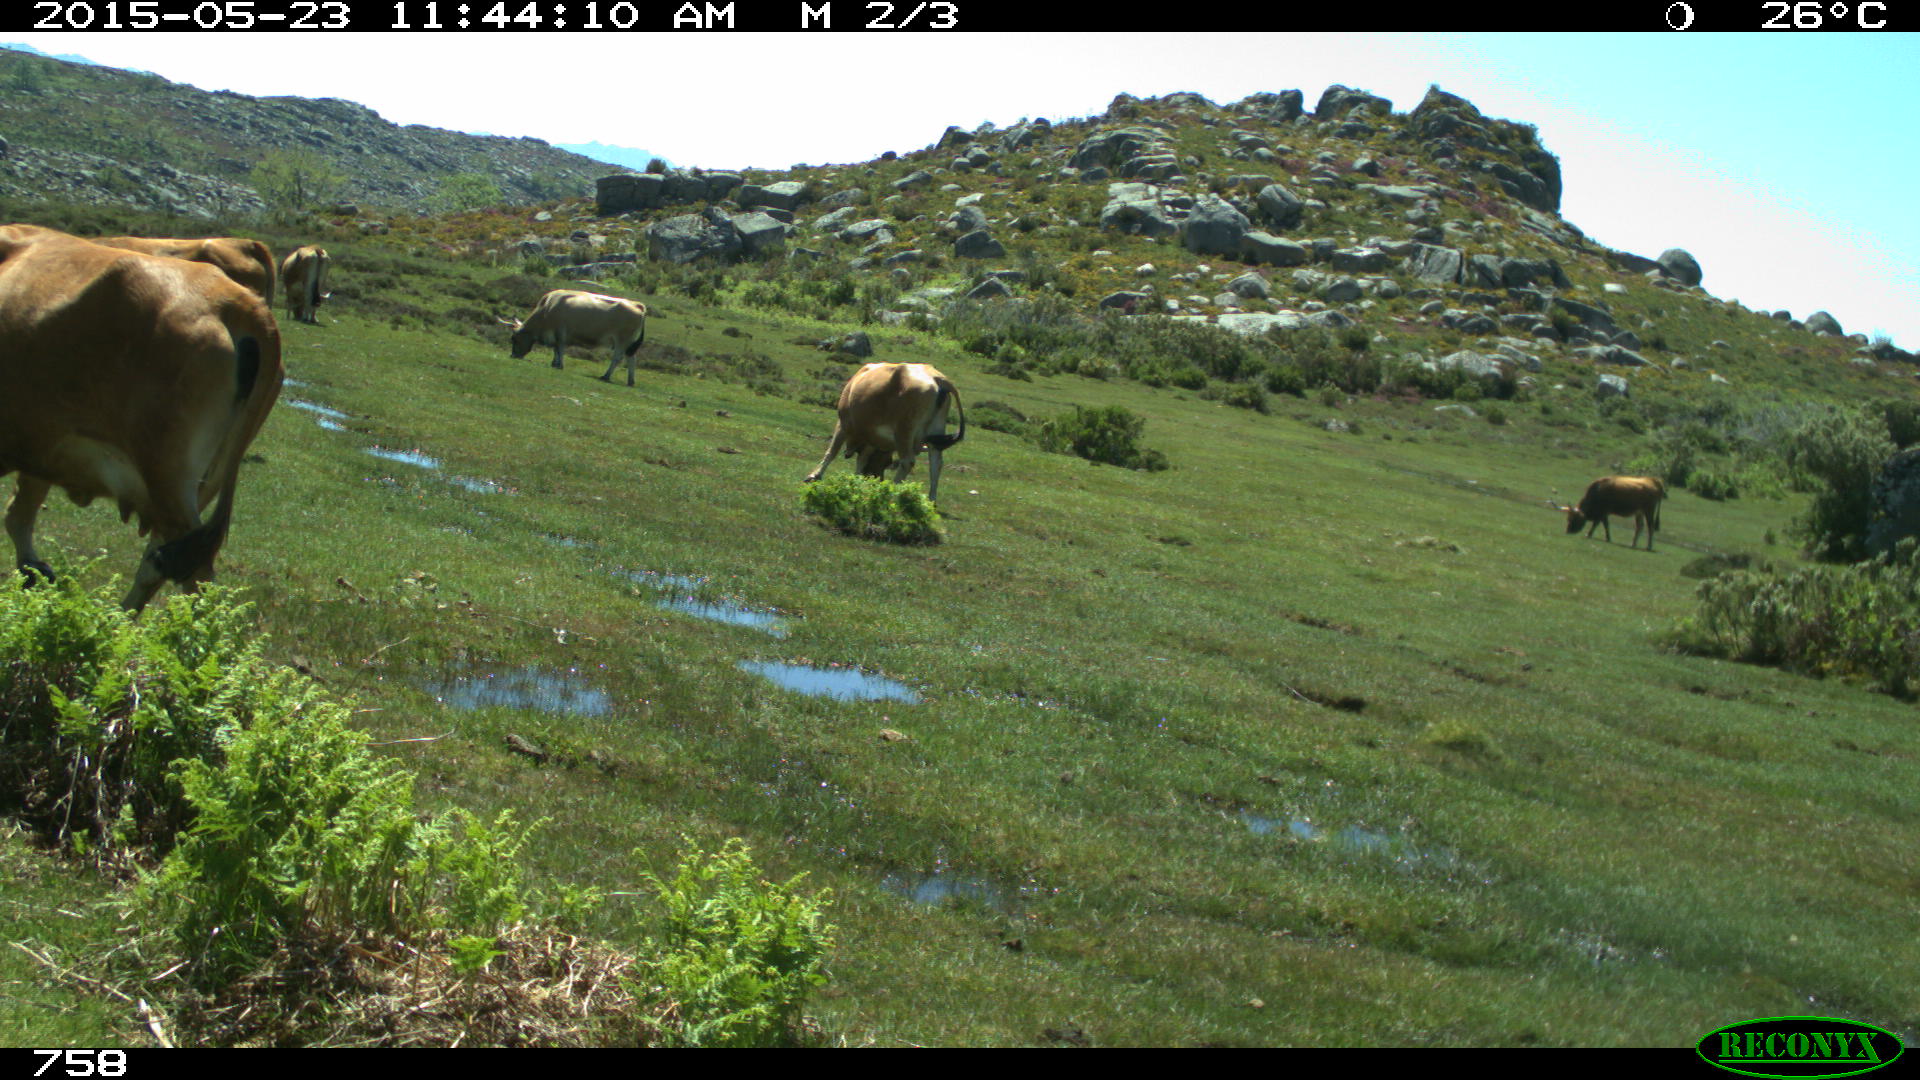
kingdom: Animalia
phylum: Chordata
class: Mammalia
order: Artiodactyla
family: Bovidae
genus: Bos
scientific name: Bos taurus
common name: Domesticated cattle
